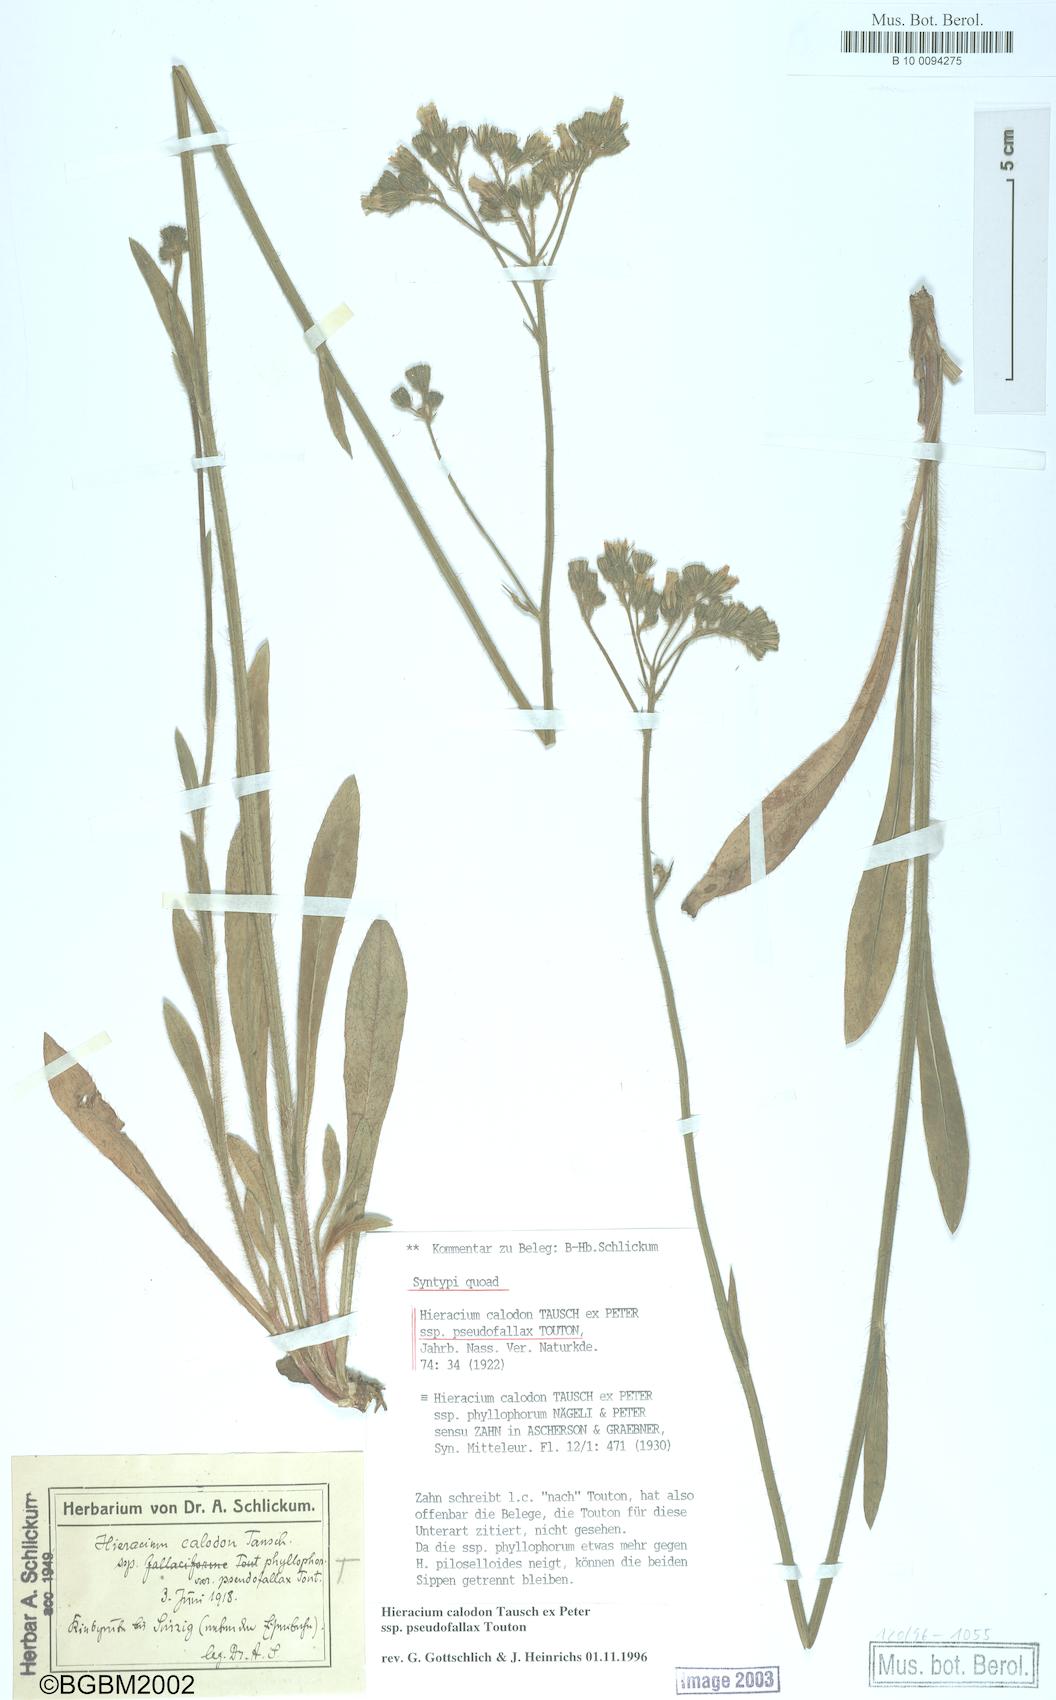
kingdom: Plantae
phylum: Tracheophyta
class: Magnoliopsida
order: Asterales
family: Asteraceae
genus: Pilosella
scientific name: Pilosella calodon
